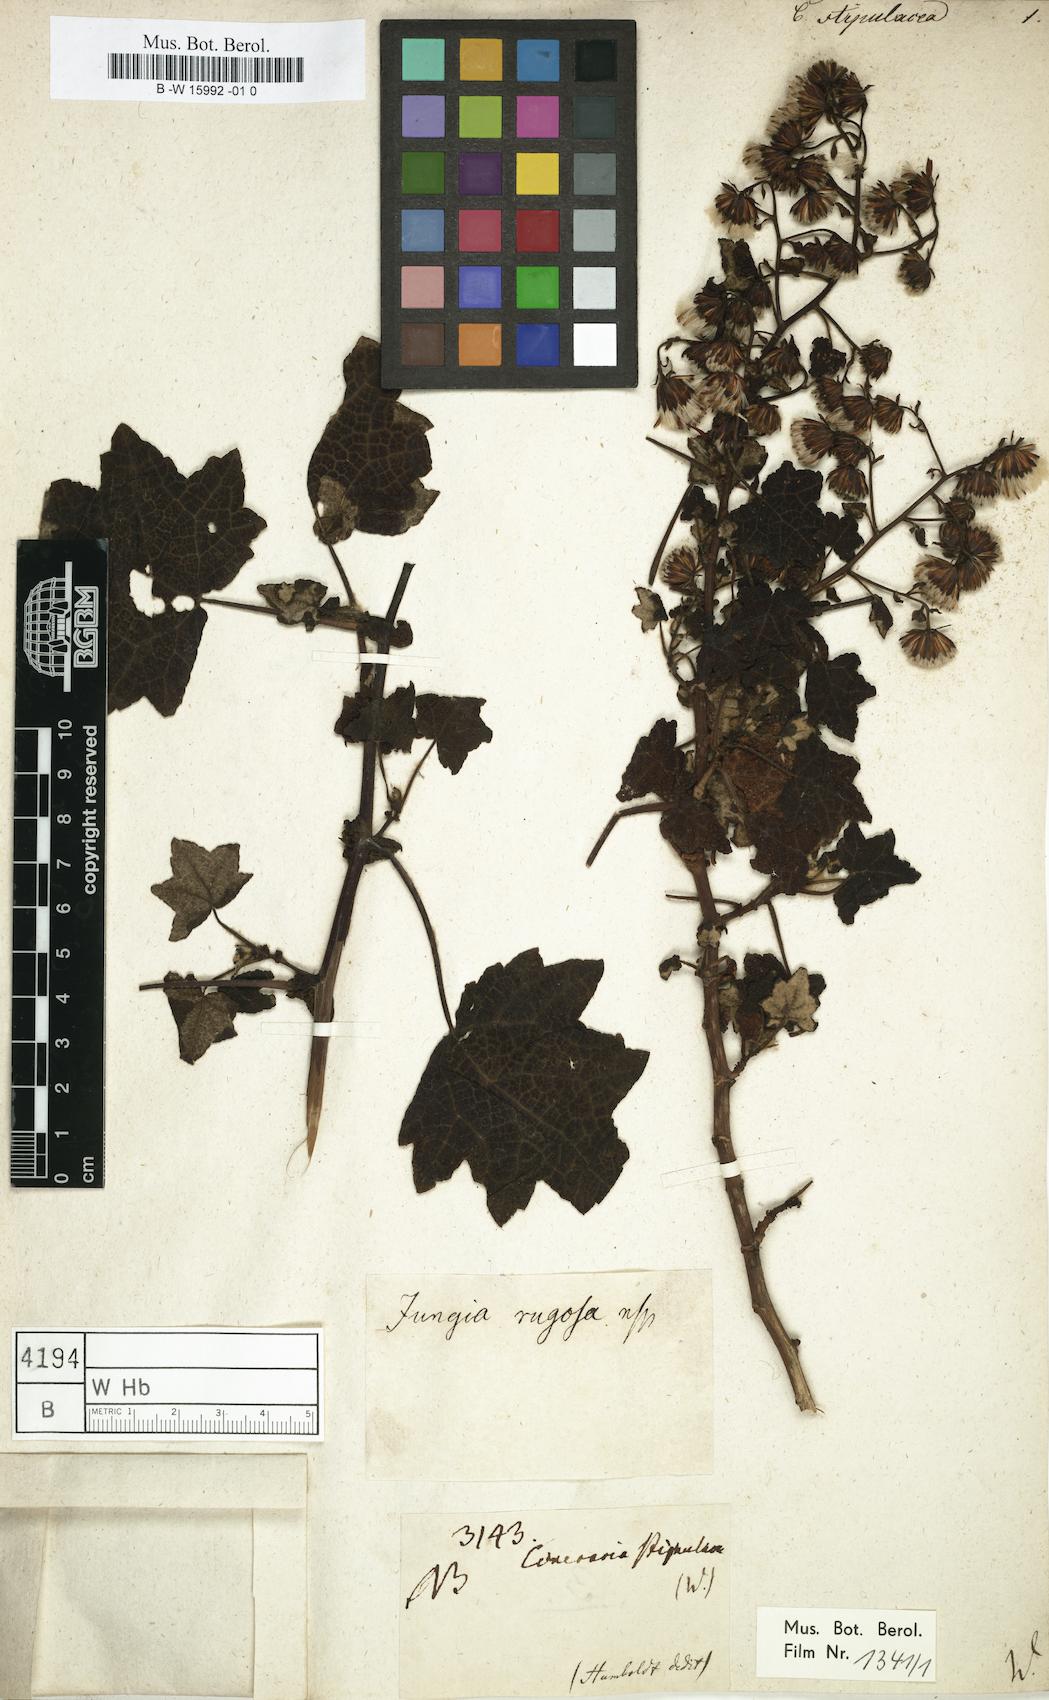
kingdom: Plantae
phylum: Tracheophyta
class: Magnoliopsida
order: Asterales
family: Asteraceae
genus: Jungia
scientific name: Jungia rugosa
